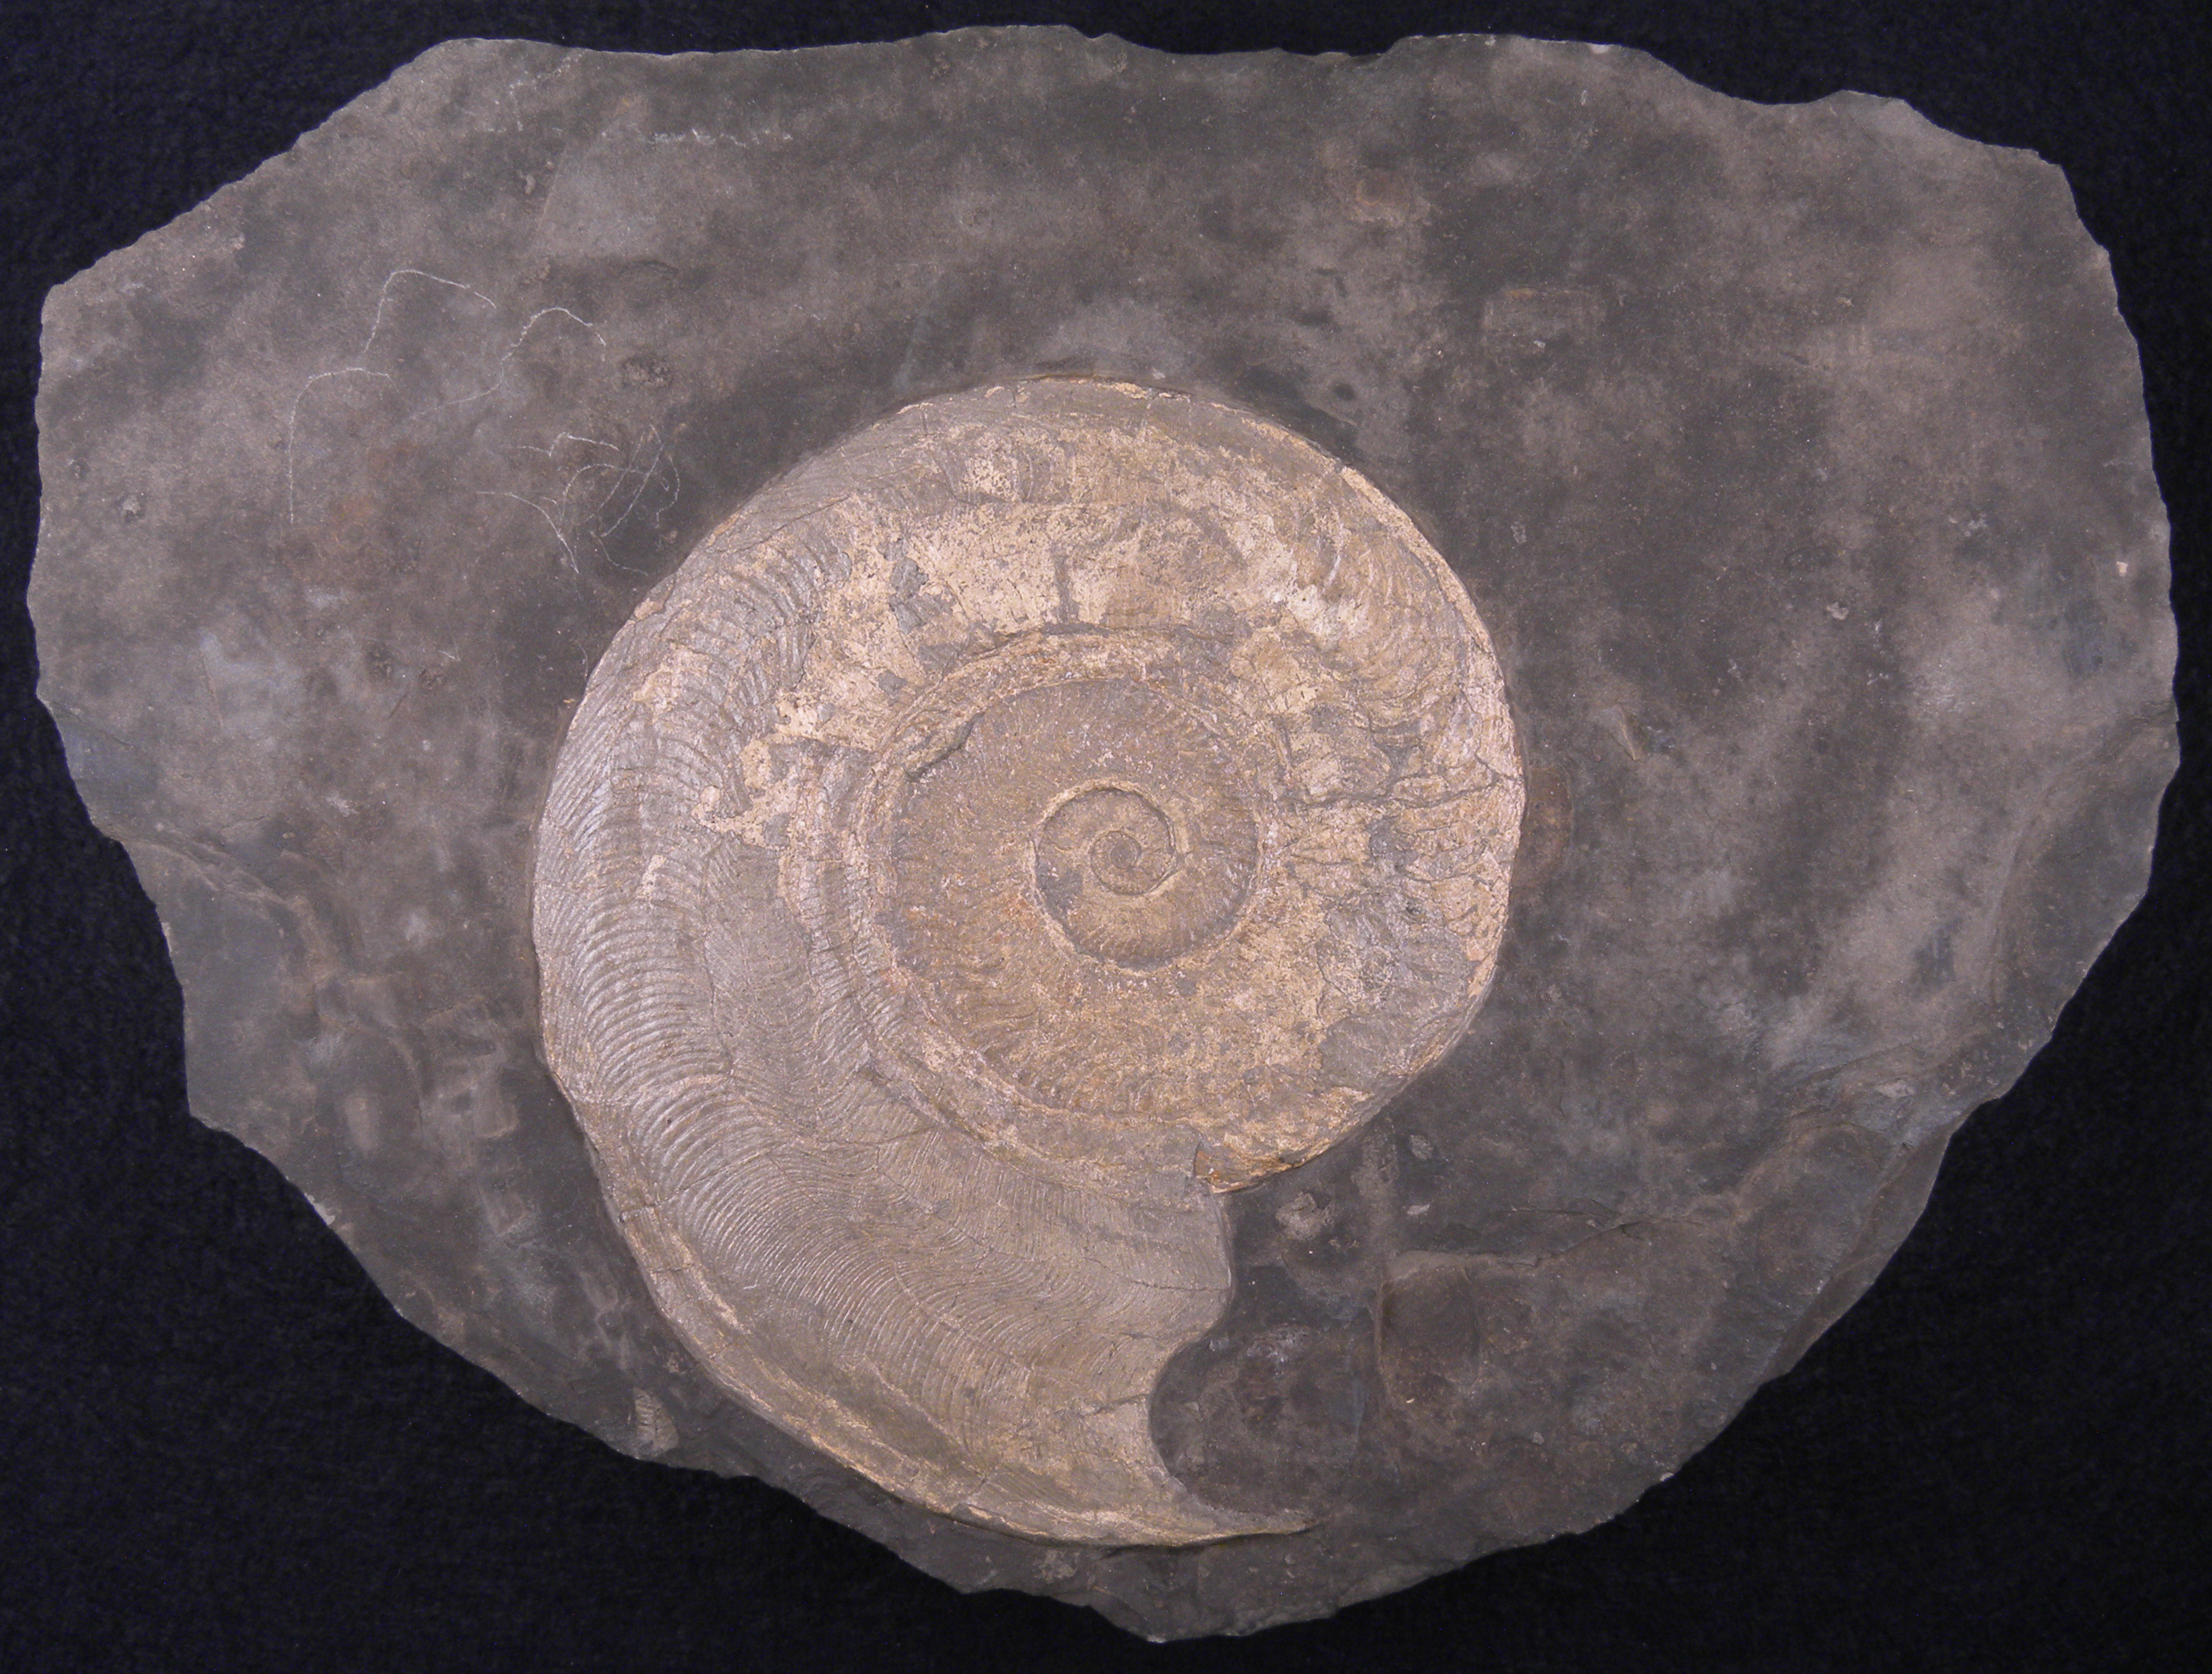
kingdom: Animalia
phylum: Mollusca
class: Cephalopoda
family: Hildoceratidae
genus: Harpoceras
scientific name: Harpoceras serpentinum
